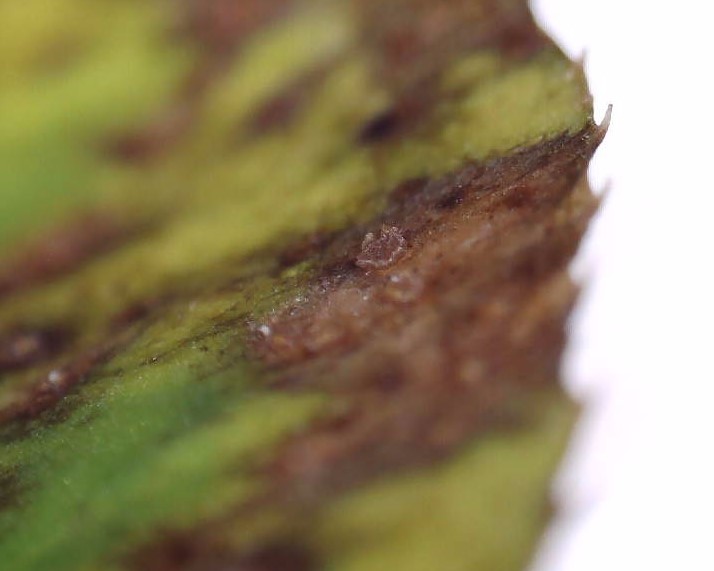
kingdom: Fungi
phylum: Ascomycota
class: Leotiomycetes
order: Helotiales
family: Drepanopezizaceae
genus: Pseudopeziza
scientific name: Pseudopeziza trifolii
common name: kløver-bladskive
